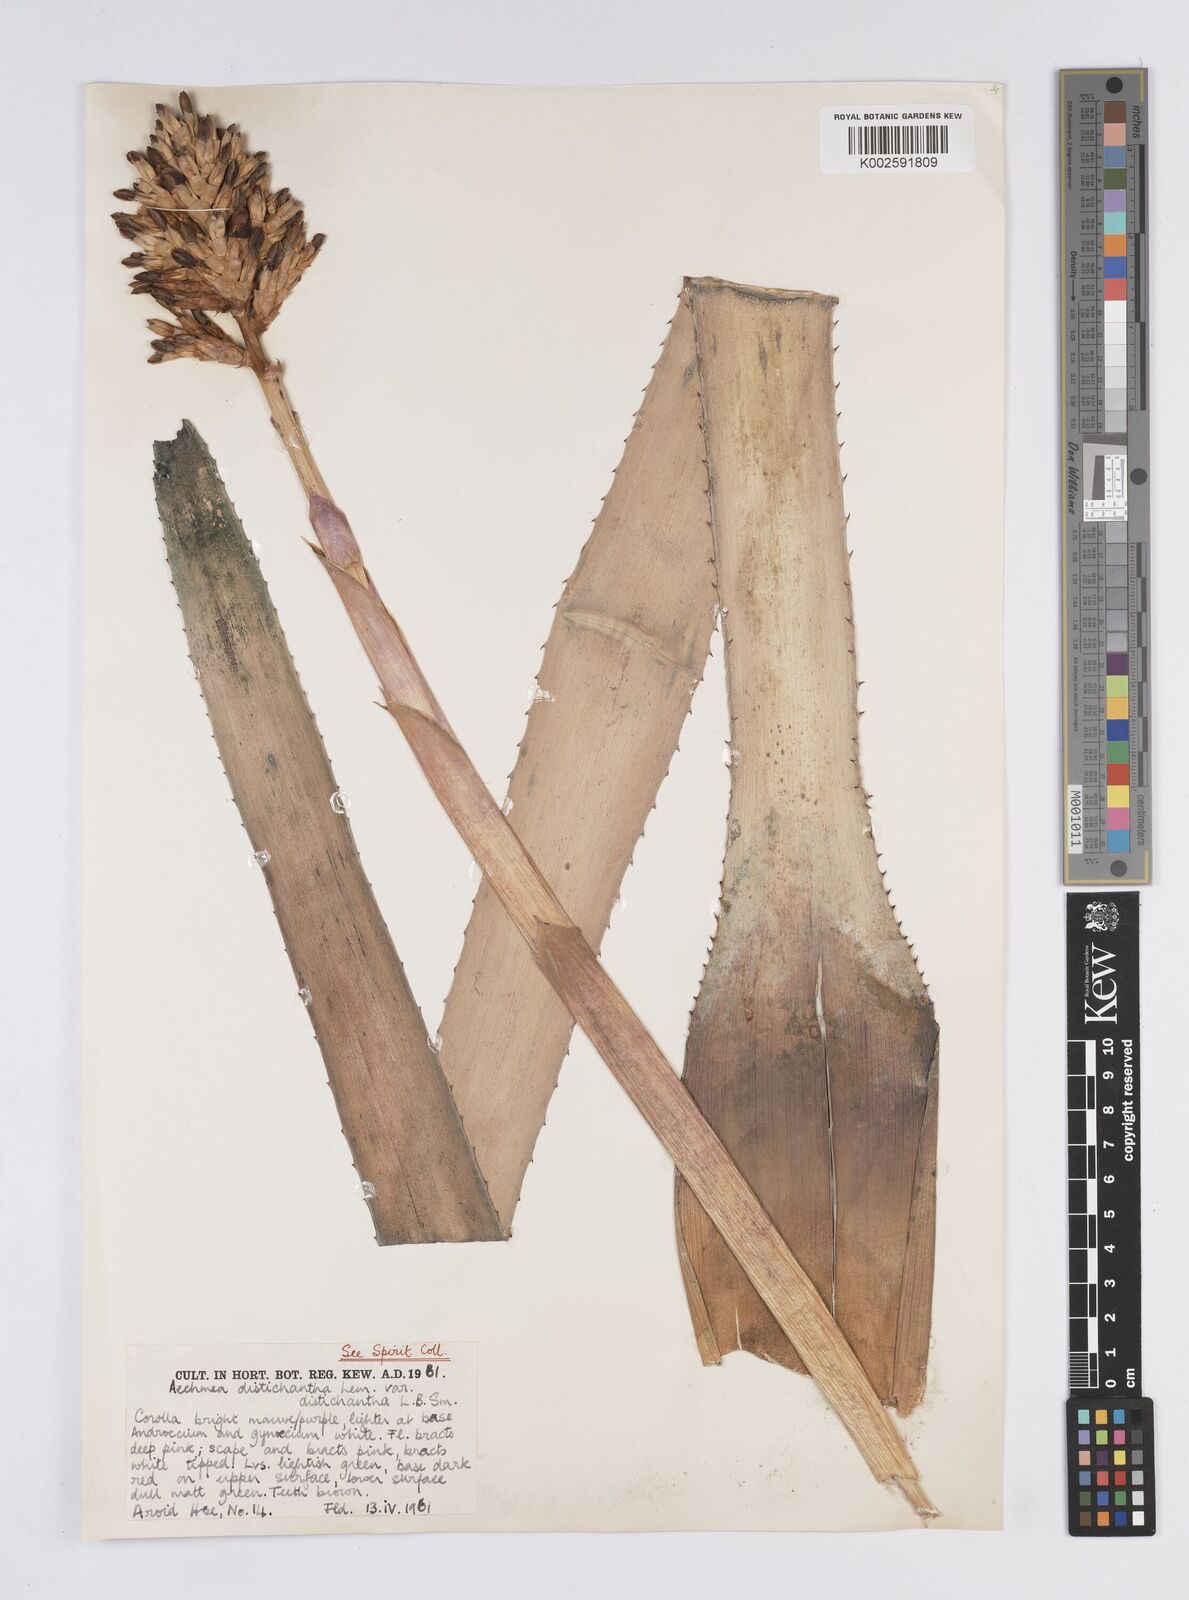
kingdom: Plantae
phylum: Tracheophyta
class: Liliopsida
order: Poales
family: Bromeliaceae
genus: Aechmea
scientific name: Aechmea distichantha
